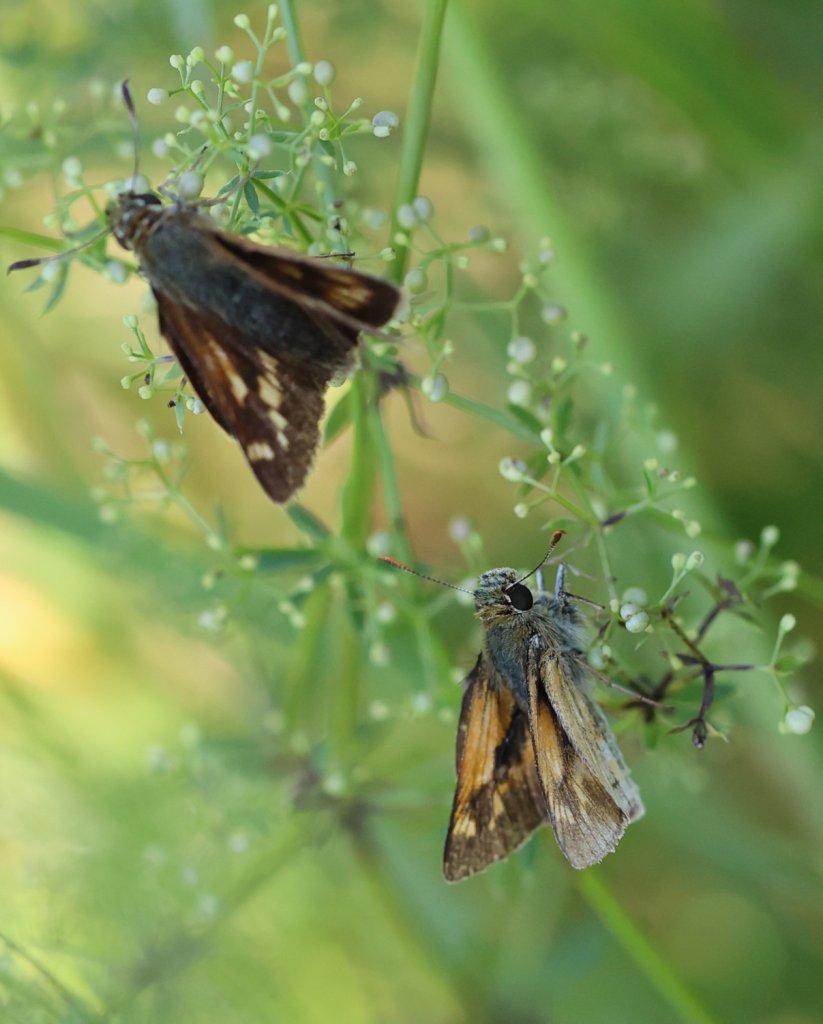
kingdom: Animalia
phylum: Arthropoda
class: Insecta
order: Lepidoptera
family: Hesperiidae
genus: Polites
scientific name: Polites
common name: Long Dash Skipper
